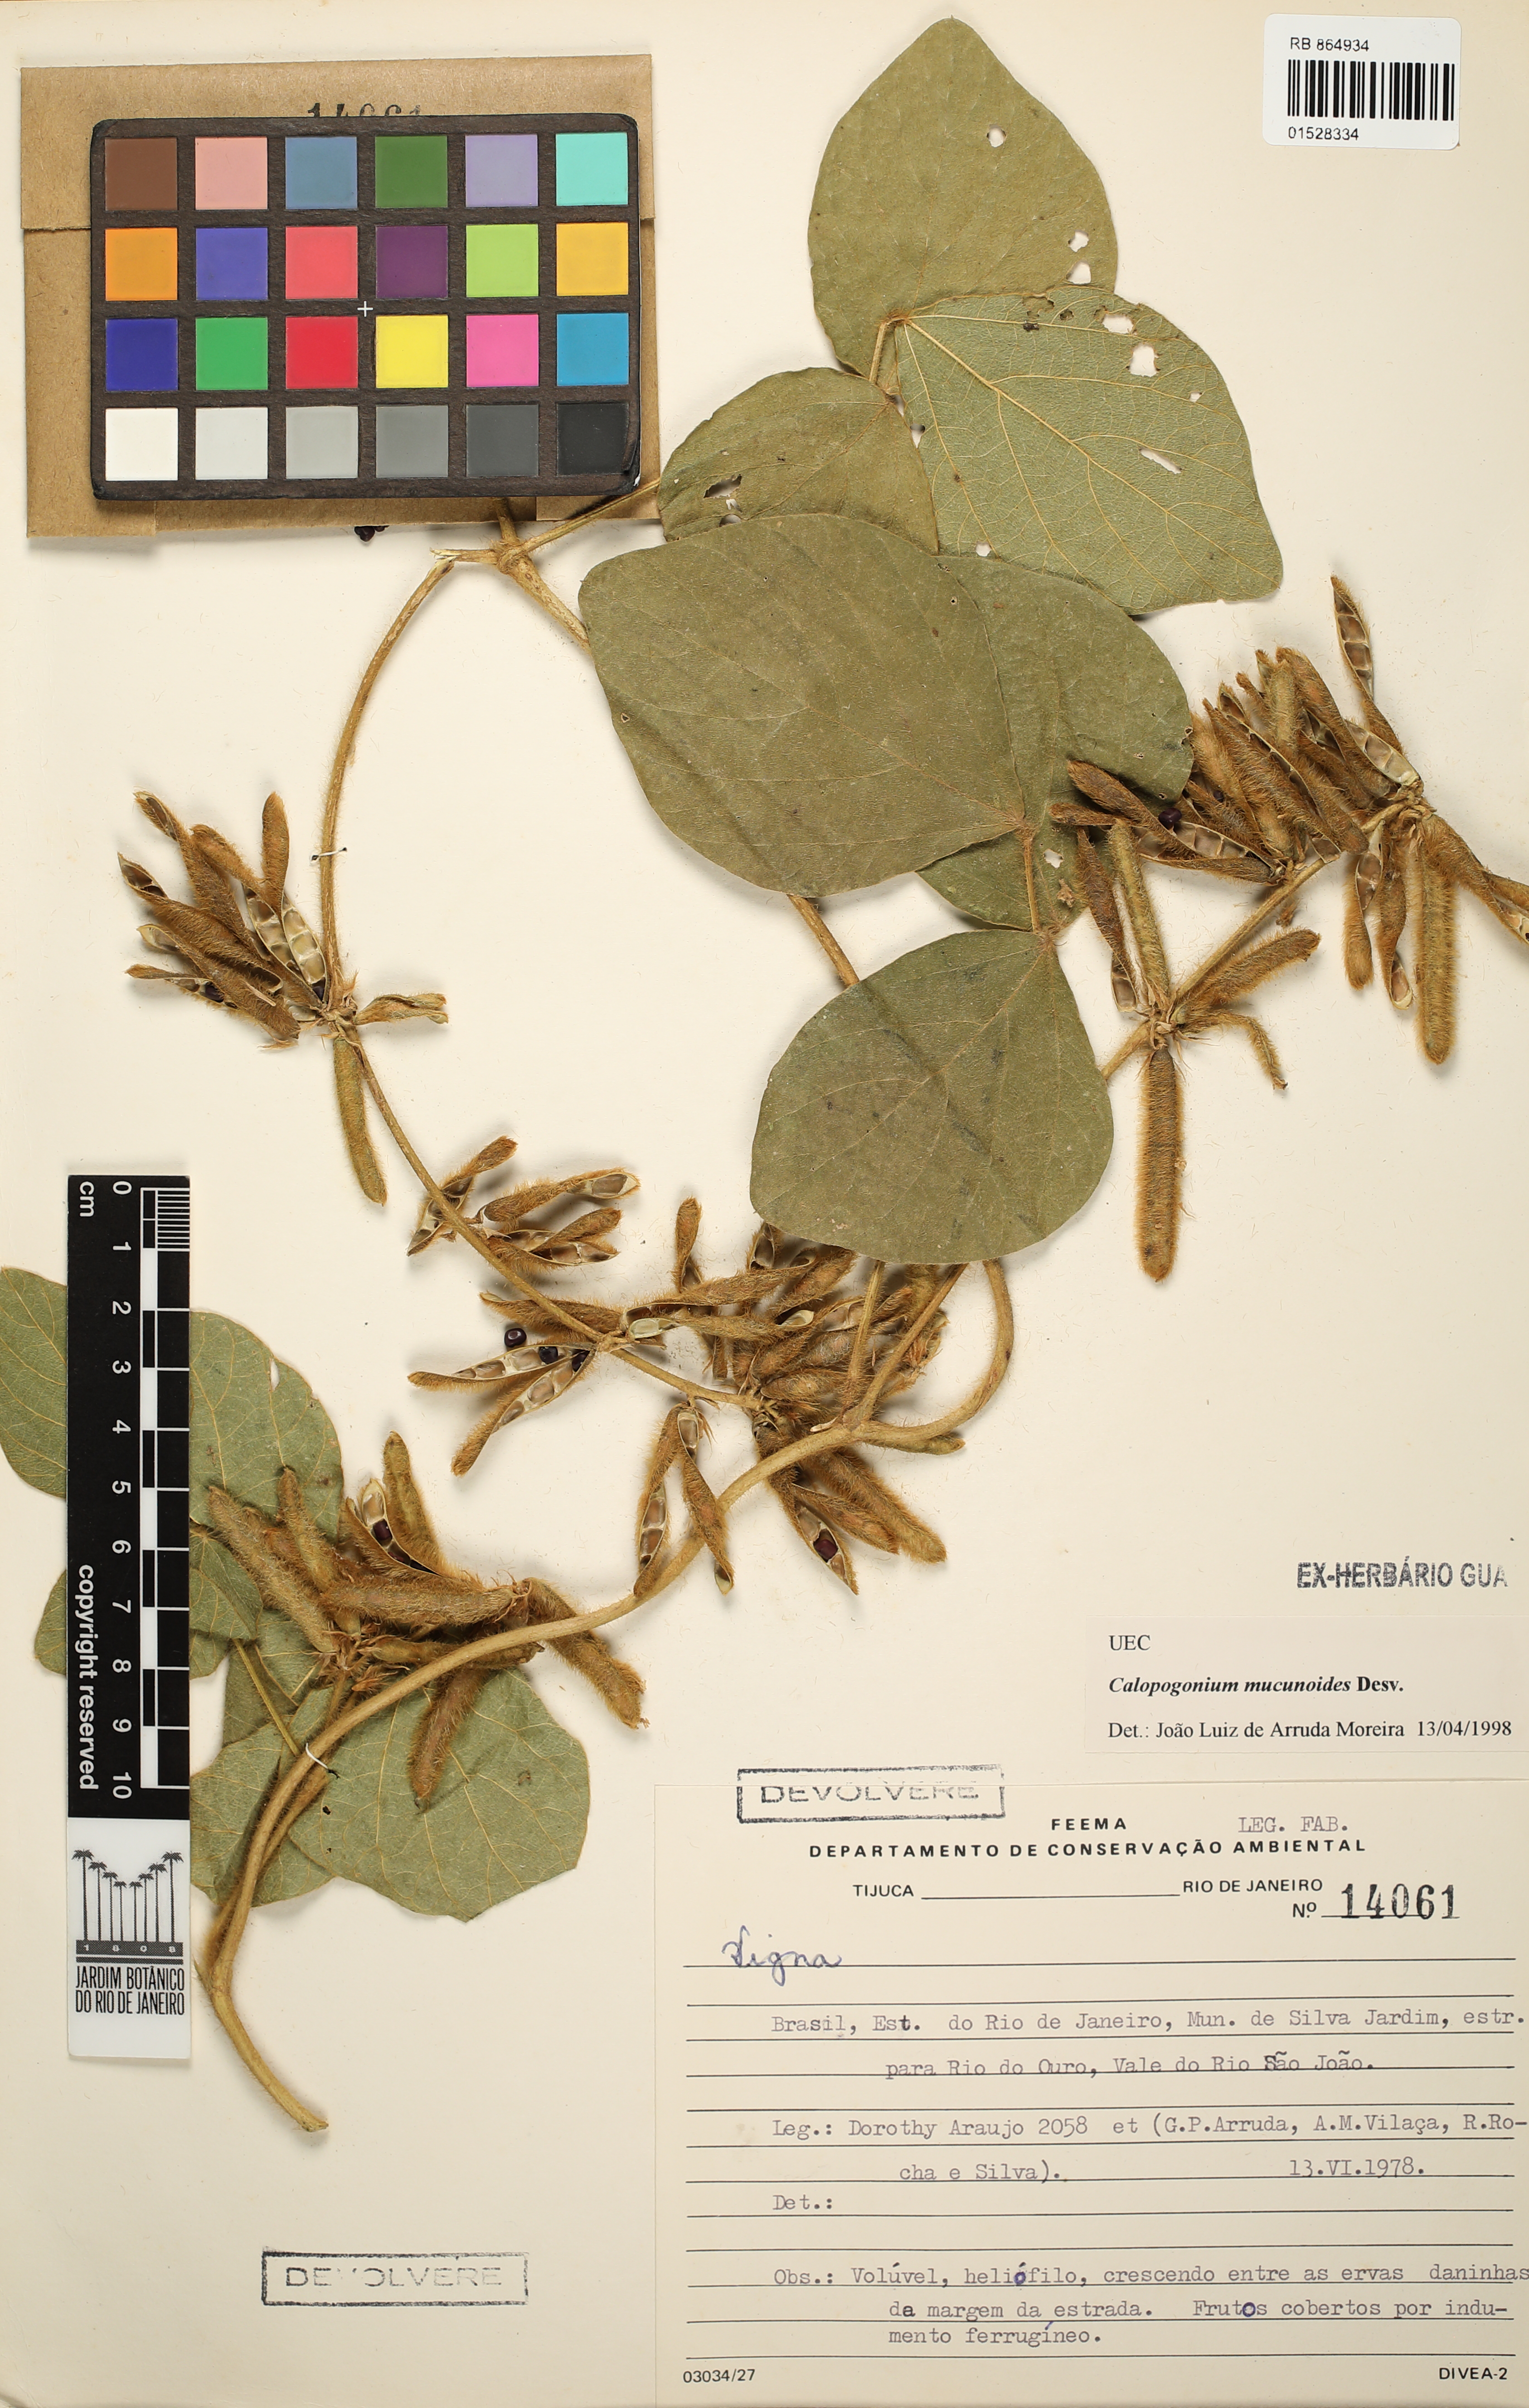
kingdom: Plantae
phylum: Tracheophyta
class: Magnoliopsida
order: Fabales
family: Fabaceae
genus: Calopogonium
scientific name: Calopogonium mucunoides
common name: Calopo
